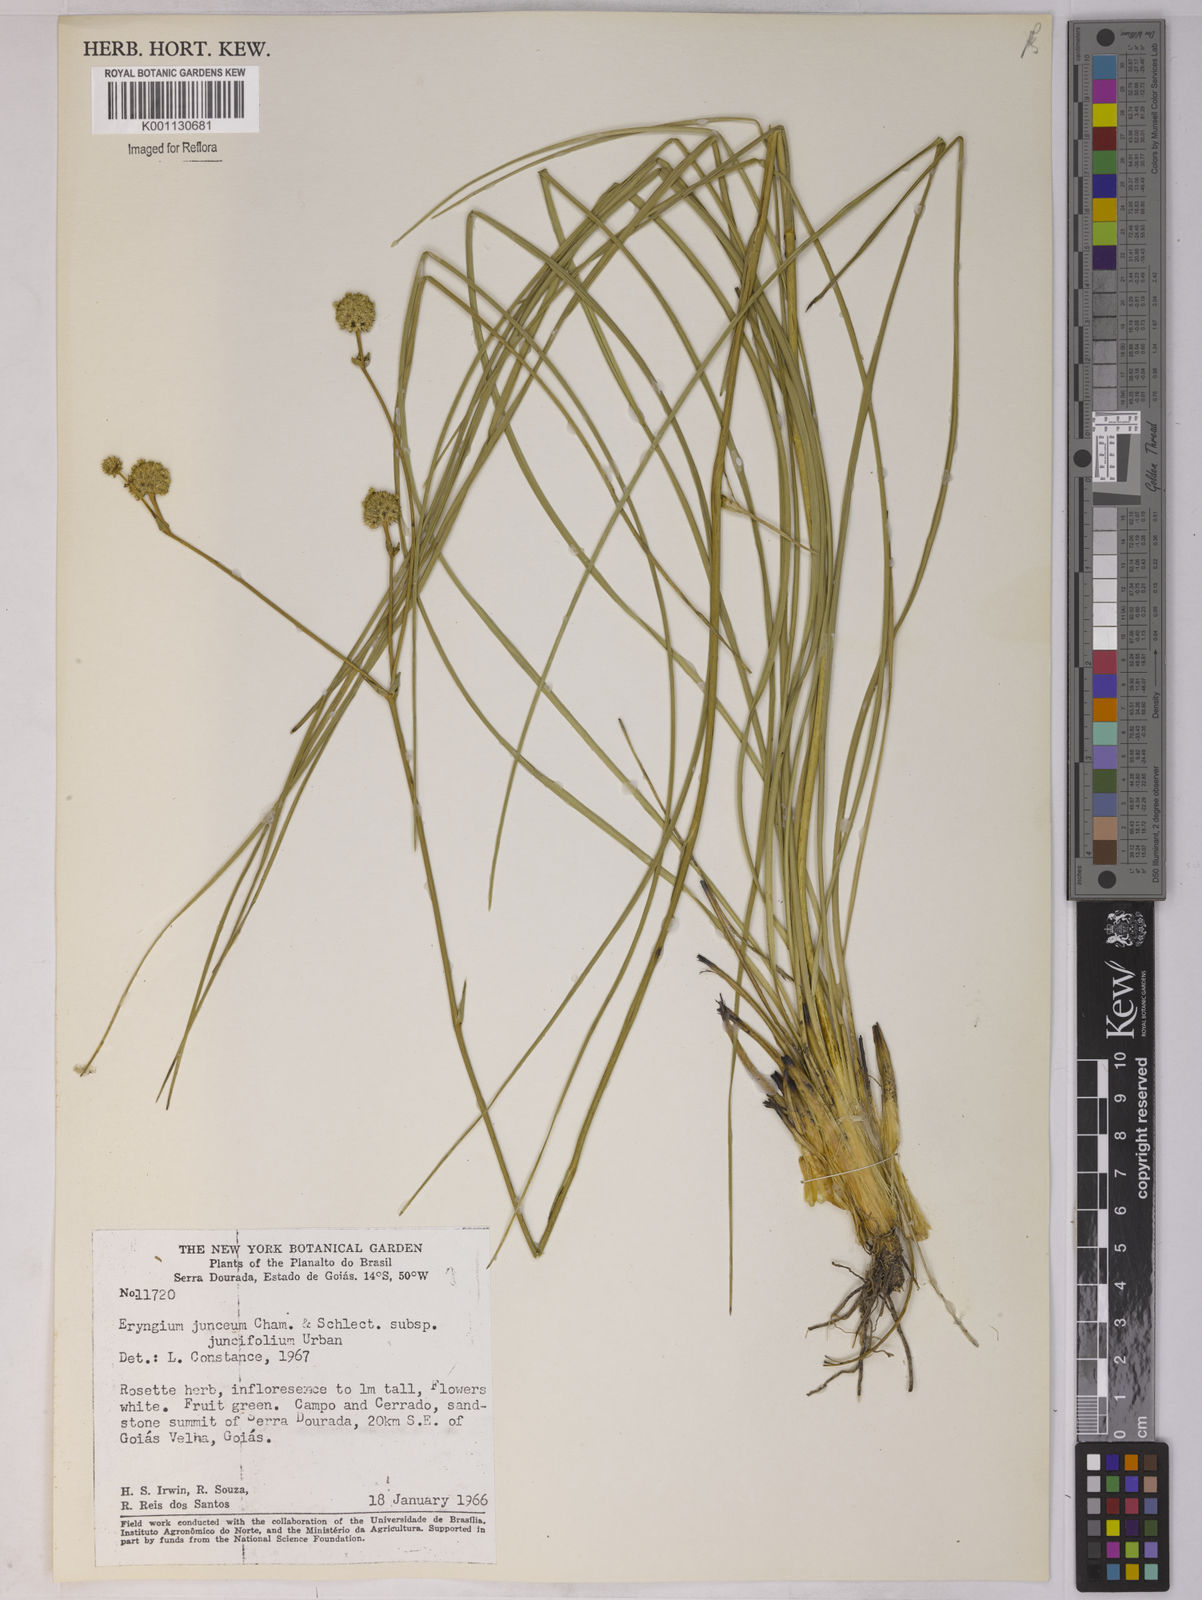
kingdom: Plantae
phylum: Tracheophyta
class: Magnoliopsida
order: Apiales
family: Apiaceae
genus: Eryngium
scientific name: Eryngium juncifolium
